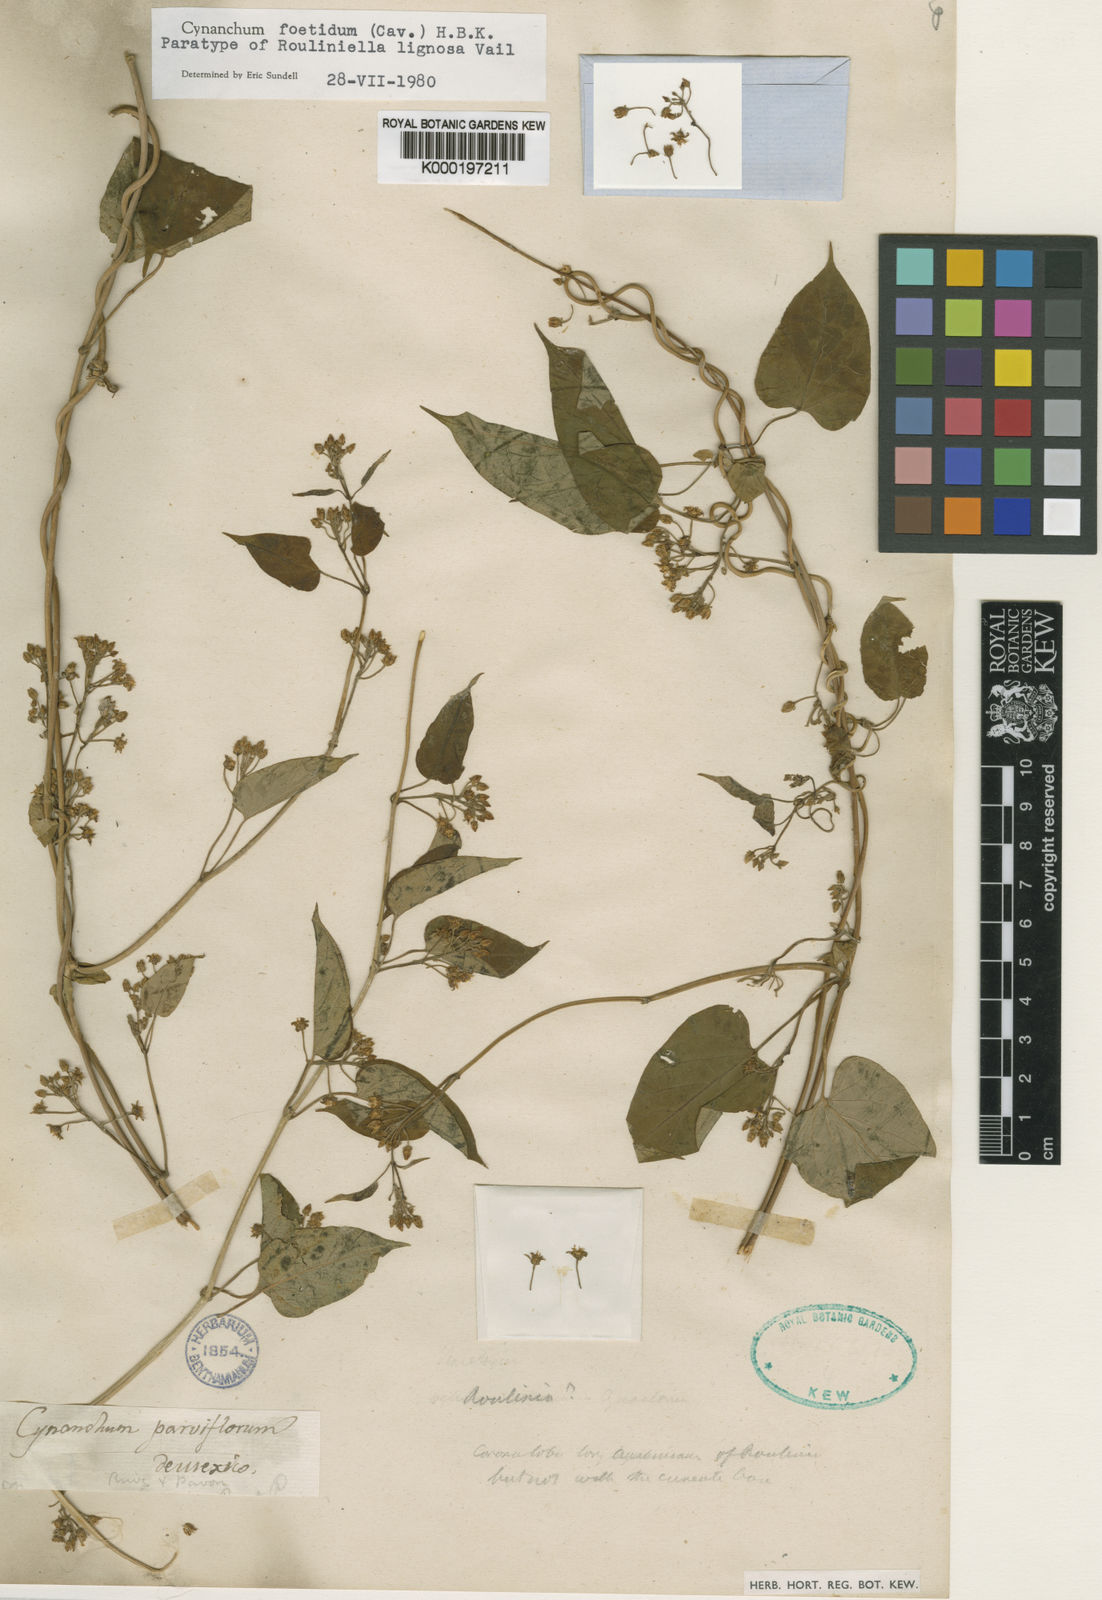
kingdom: Plantae
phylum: Tracheophyta
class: Magnoliopsida
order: Gentianales
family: Apocynaceae
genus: Cynanchum
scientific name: Cynanchum foetidum
